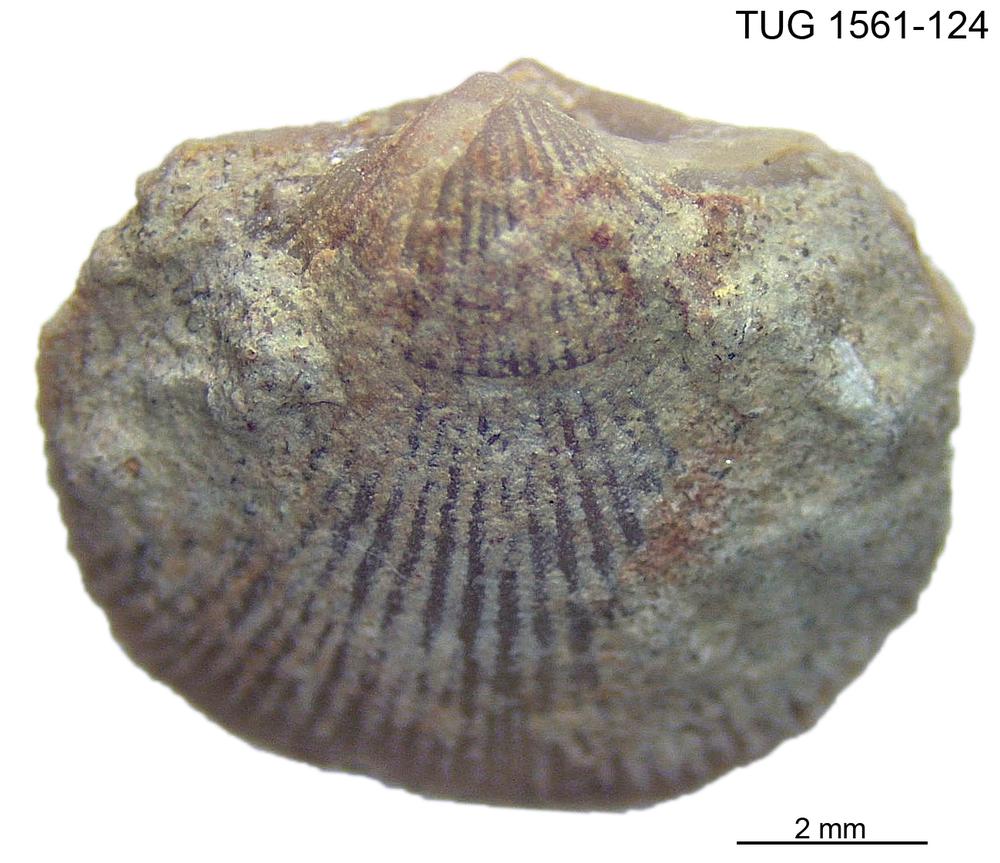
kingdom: Animalia
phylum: Brachiopoda
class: Rhynchonellata
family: Linoporellidae
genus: Linoporella
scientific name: Linoporella Orthis punctata
